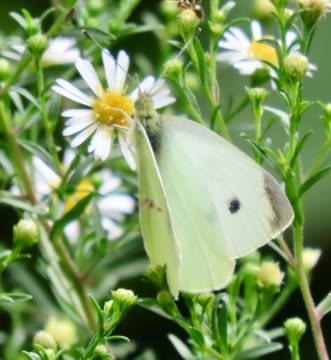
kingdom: Animalia
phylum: Arthropoda
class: Insecta
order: Lepidoptera
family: Pieridae
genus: Pieris
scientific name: Pieris rapae
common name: Cabbage White
